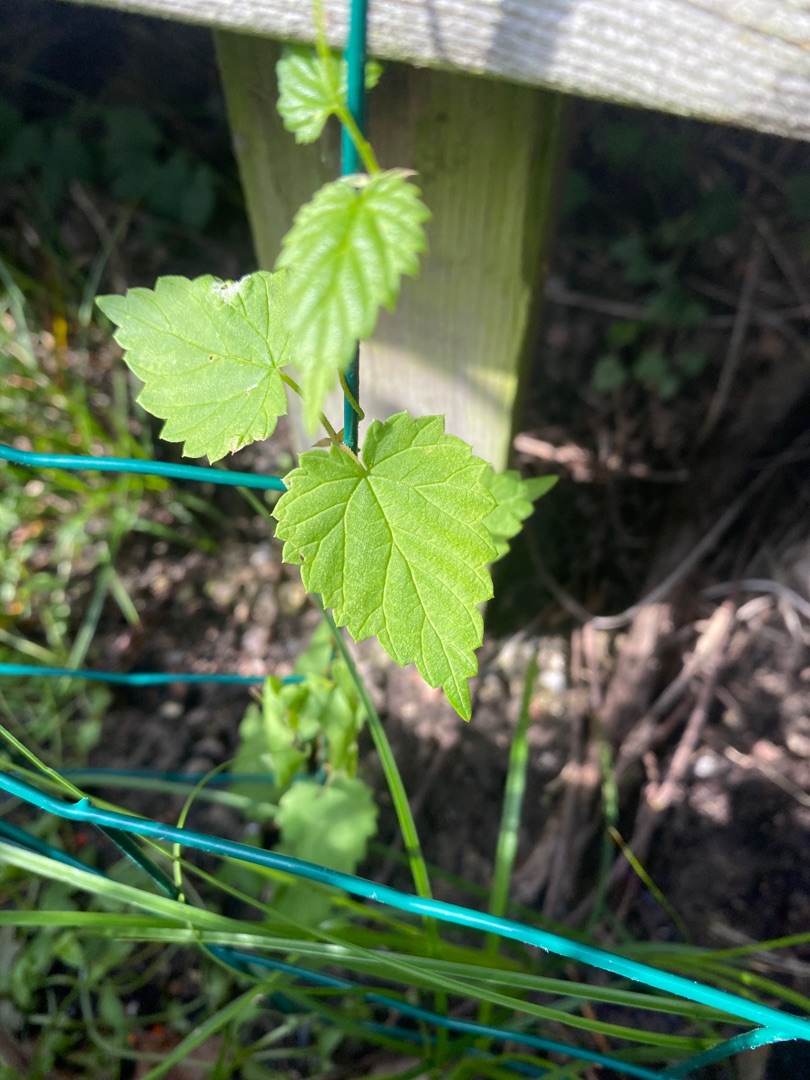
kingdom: Plantae
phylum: Tracheophyta
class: Magnoliopsida
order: Rosales
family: Cannabaceae
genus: Humulus
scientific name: Humulus lupulus
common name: Humle
